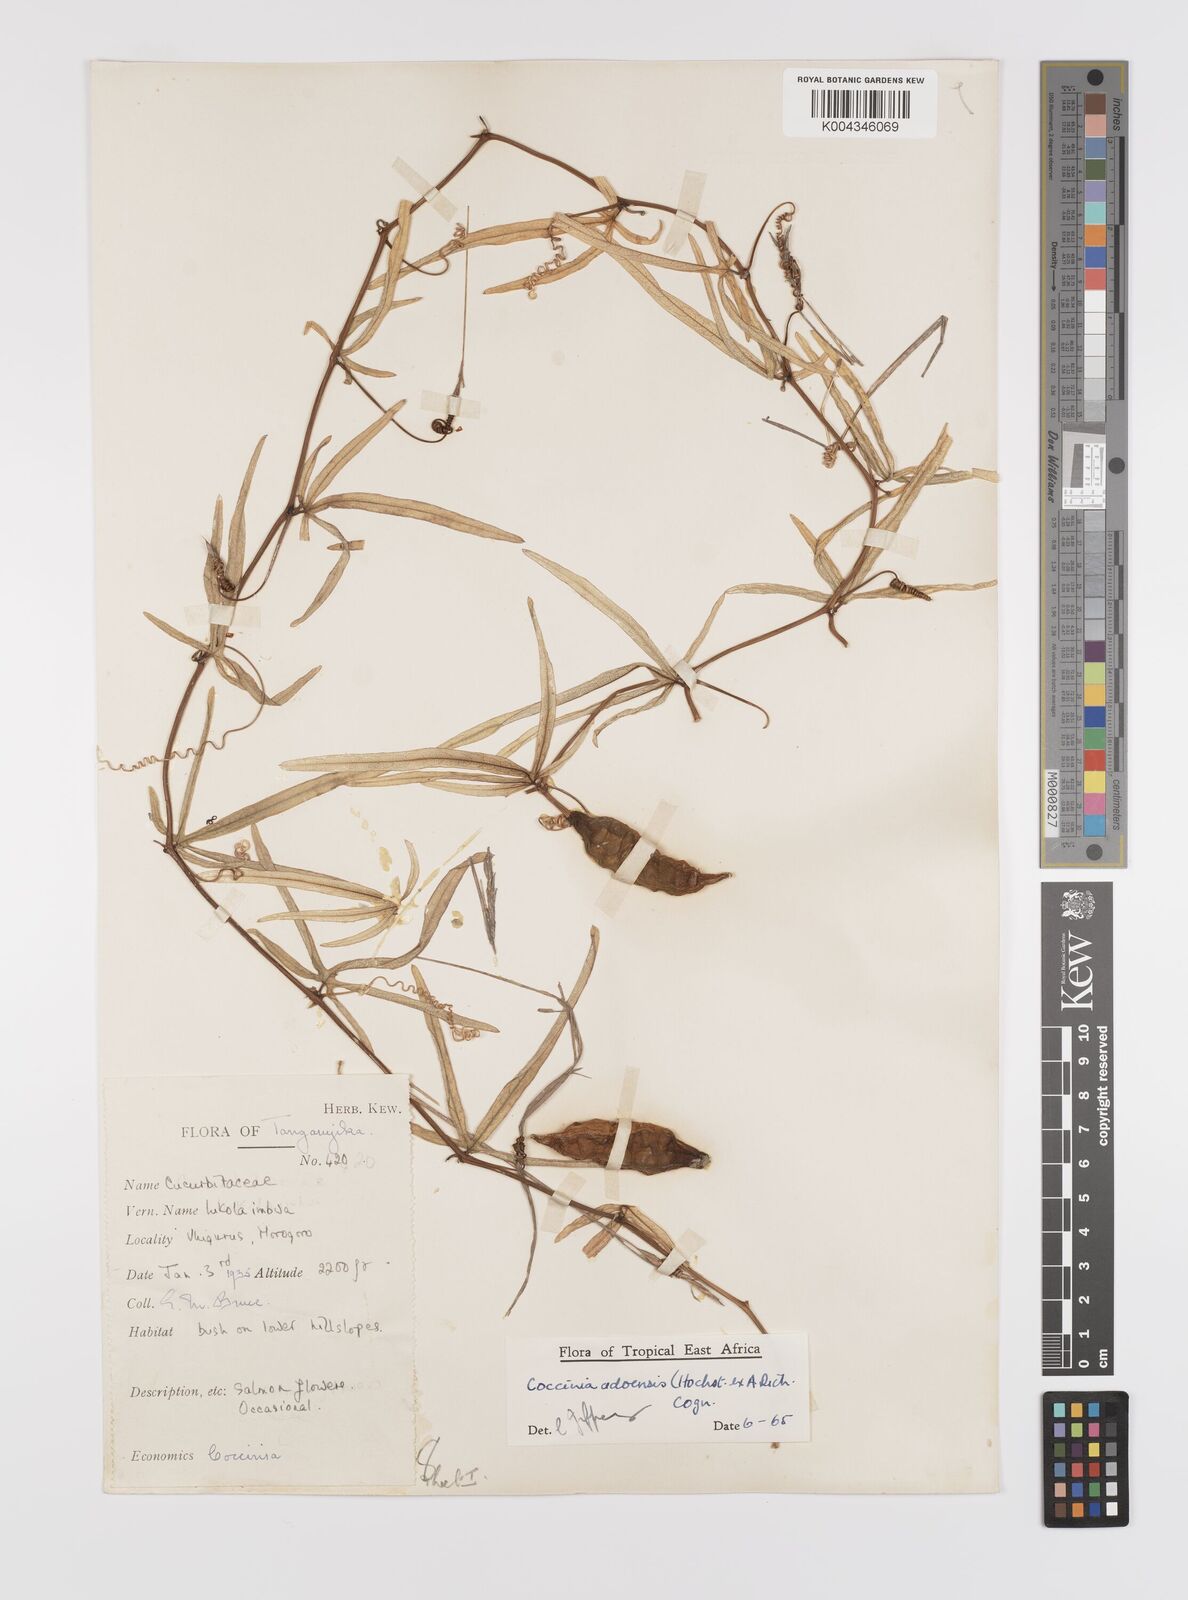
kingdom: Plantae
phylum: Tracheophyta
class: Magnoliopsida
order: Cucurbitales
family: Cucurbitaceae
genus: Coccinia
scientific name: Coccinia adoensis
